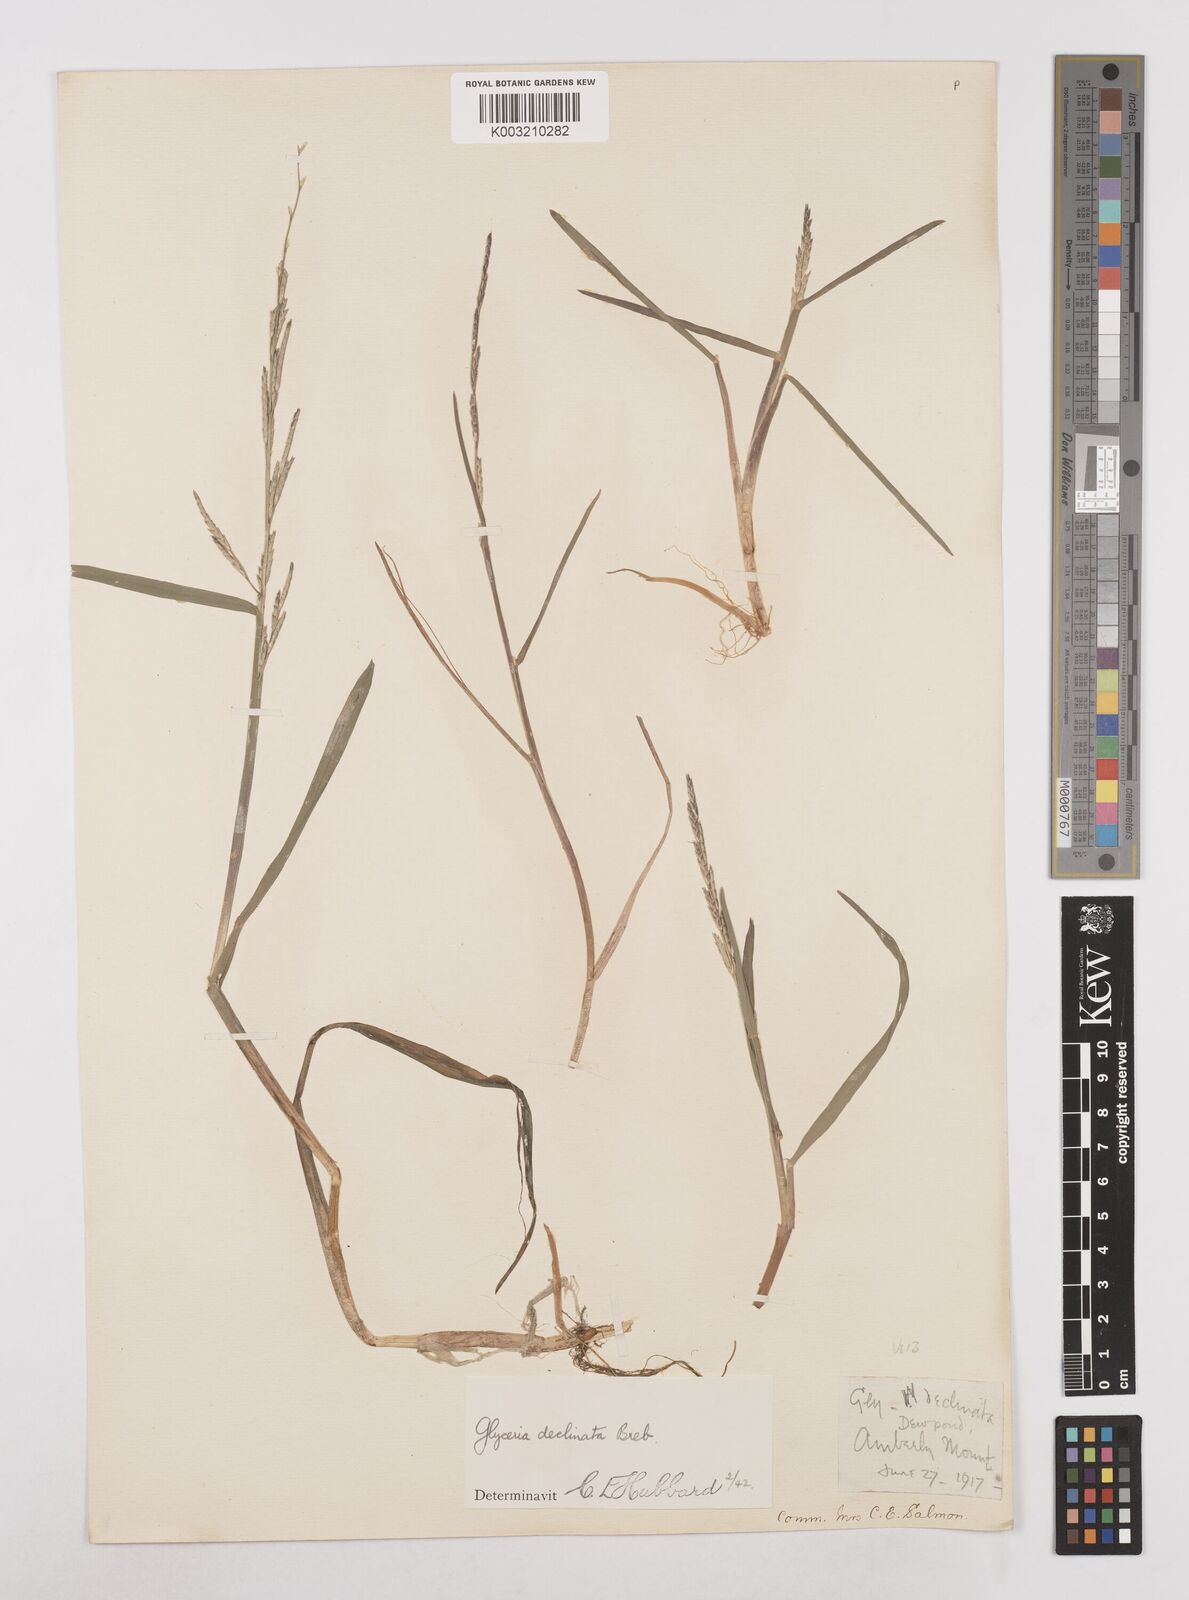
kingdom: Plantae
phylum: Tracheophyta
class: Liliopsida
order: Poales
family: Poaceae
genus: Glyceria
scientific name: Glyceria declinata
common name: Small sweet-grass
